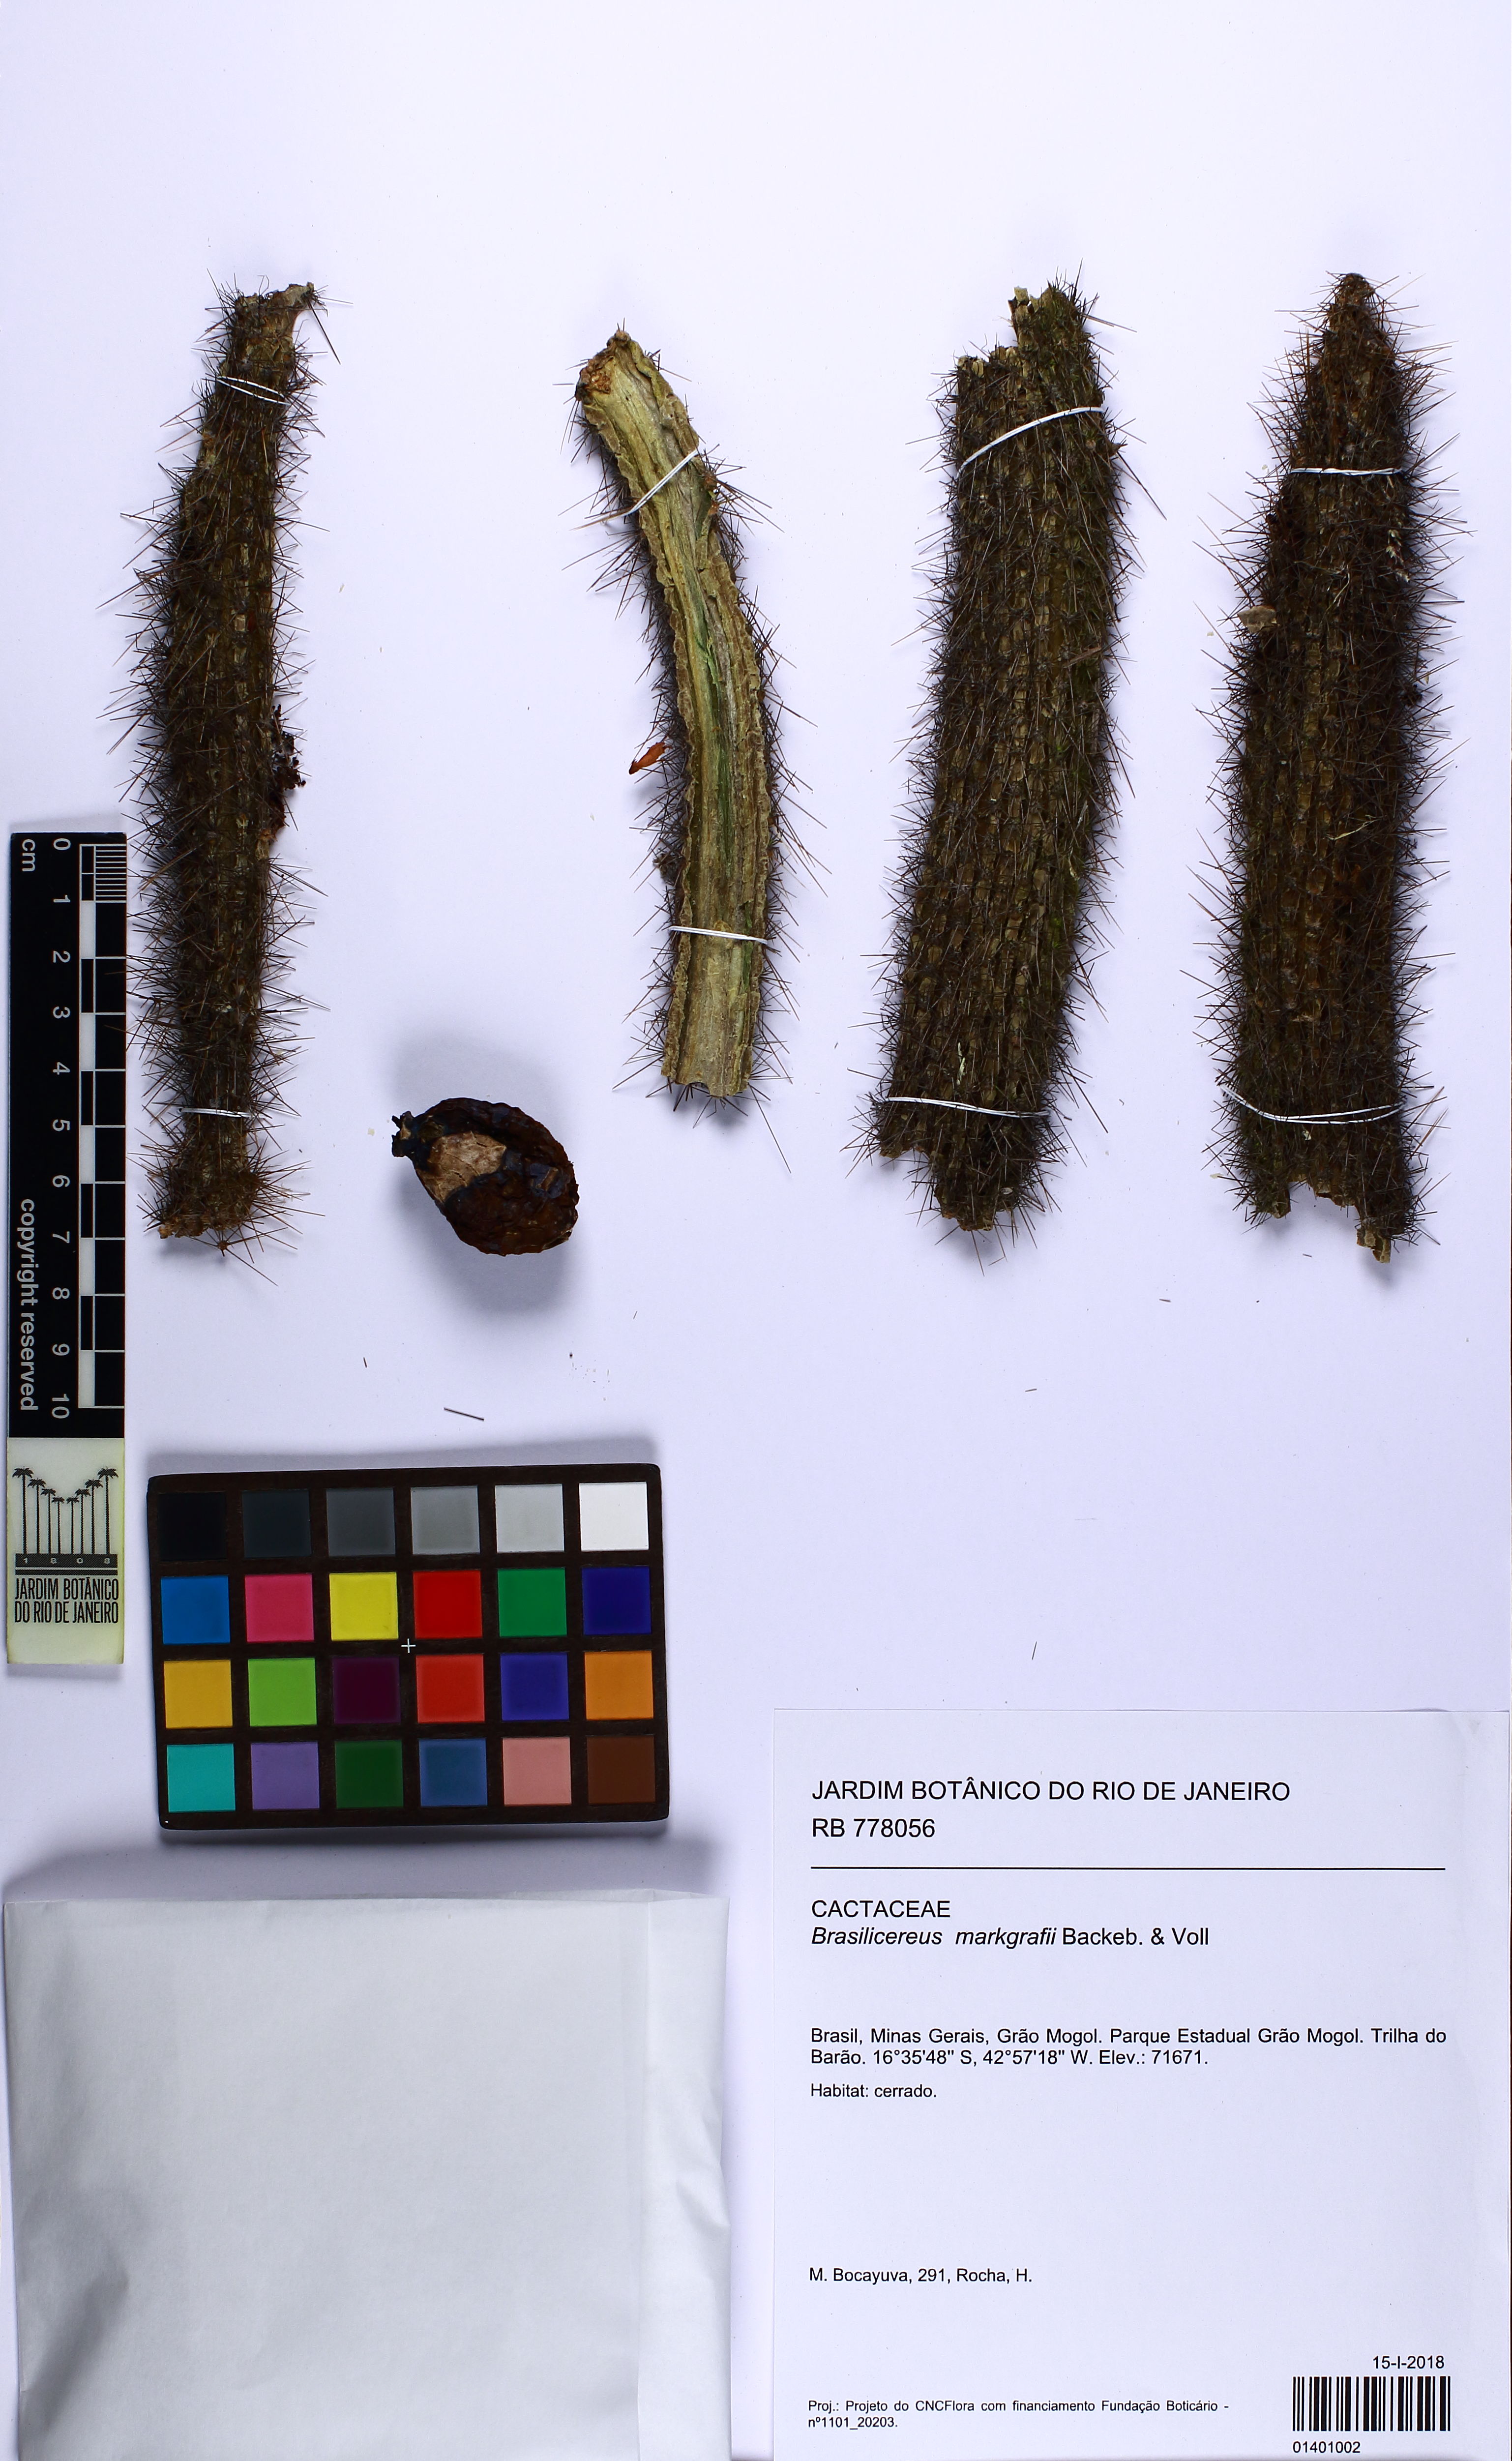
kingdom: Plantae
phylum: Tracheophyta
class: Magnoliopsida
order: Caryophyllales
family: Cactaceae
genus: Cipocereus
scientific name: Cipocereus minensis
